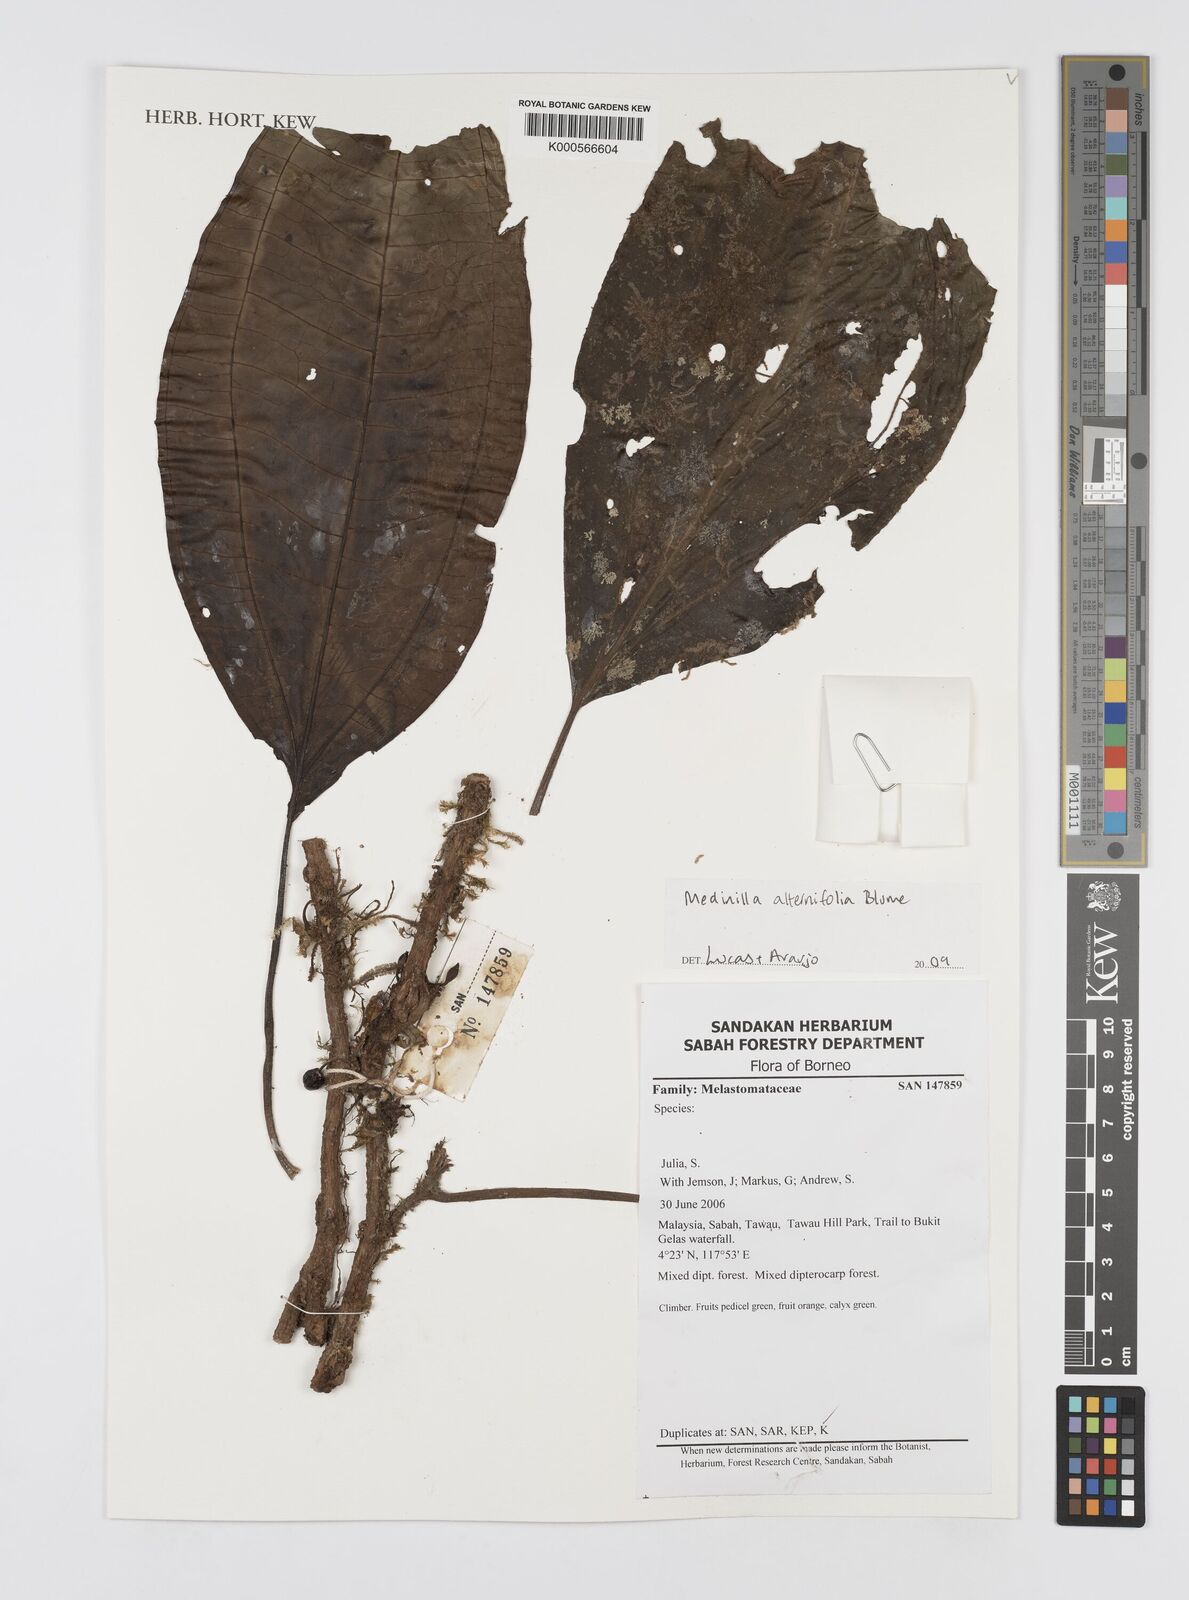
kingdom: Plantae
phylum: Tracheophyta
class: Magnoliopsida
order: Myrtales
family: Melastomataceae
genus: Heteroblemma
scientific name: Heteroblemma alternifolium
